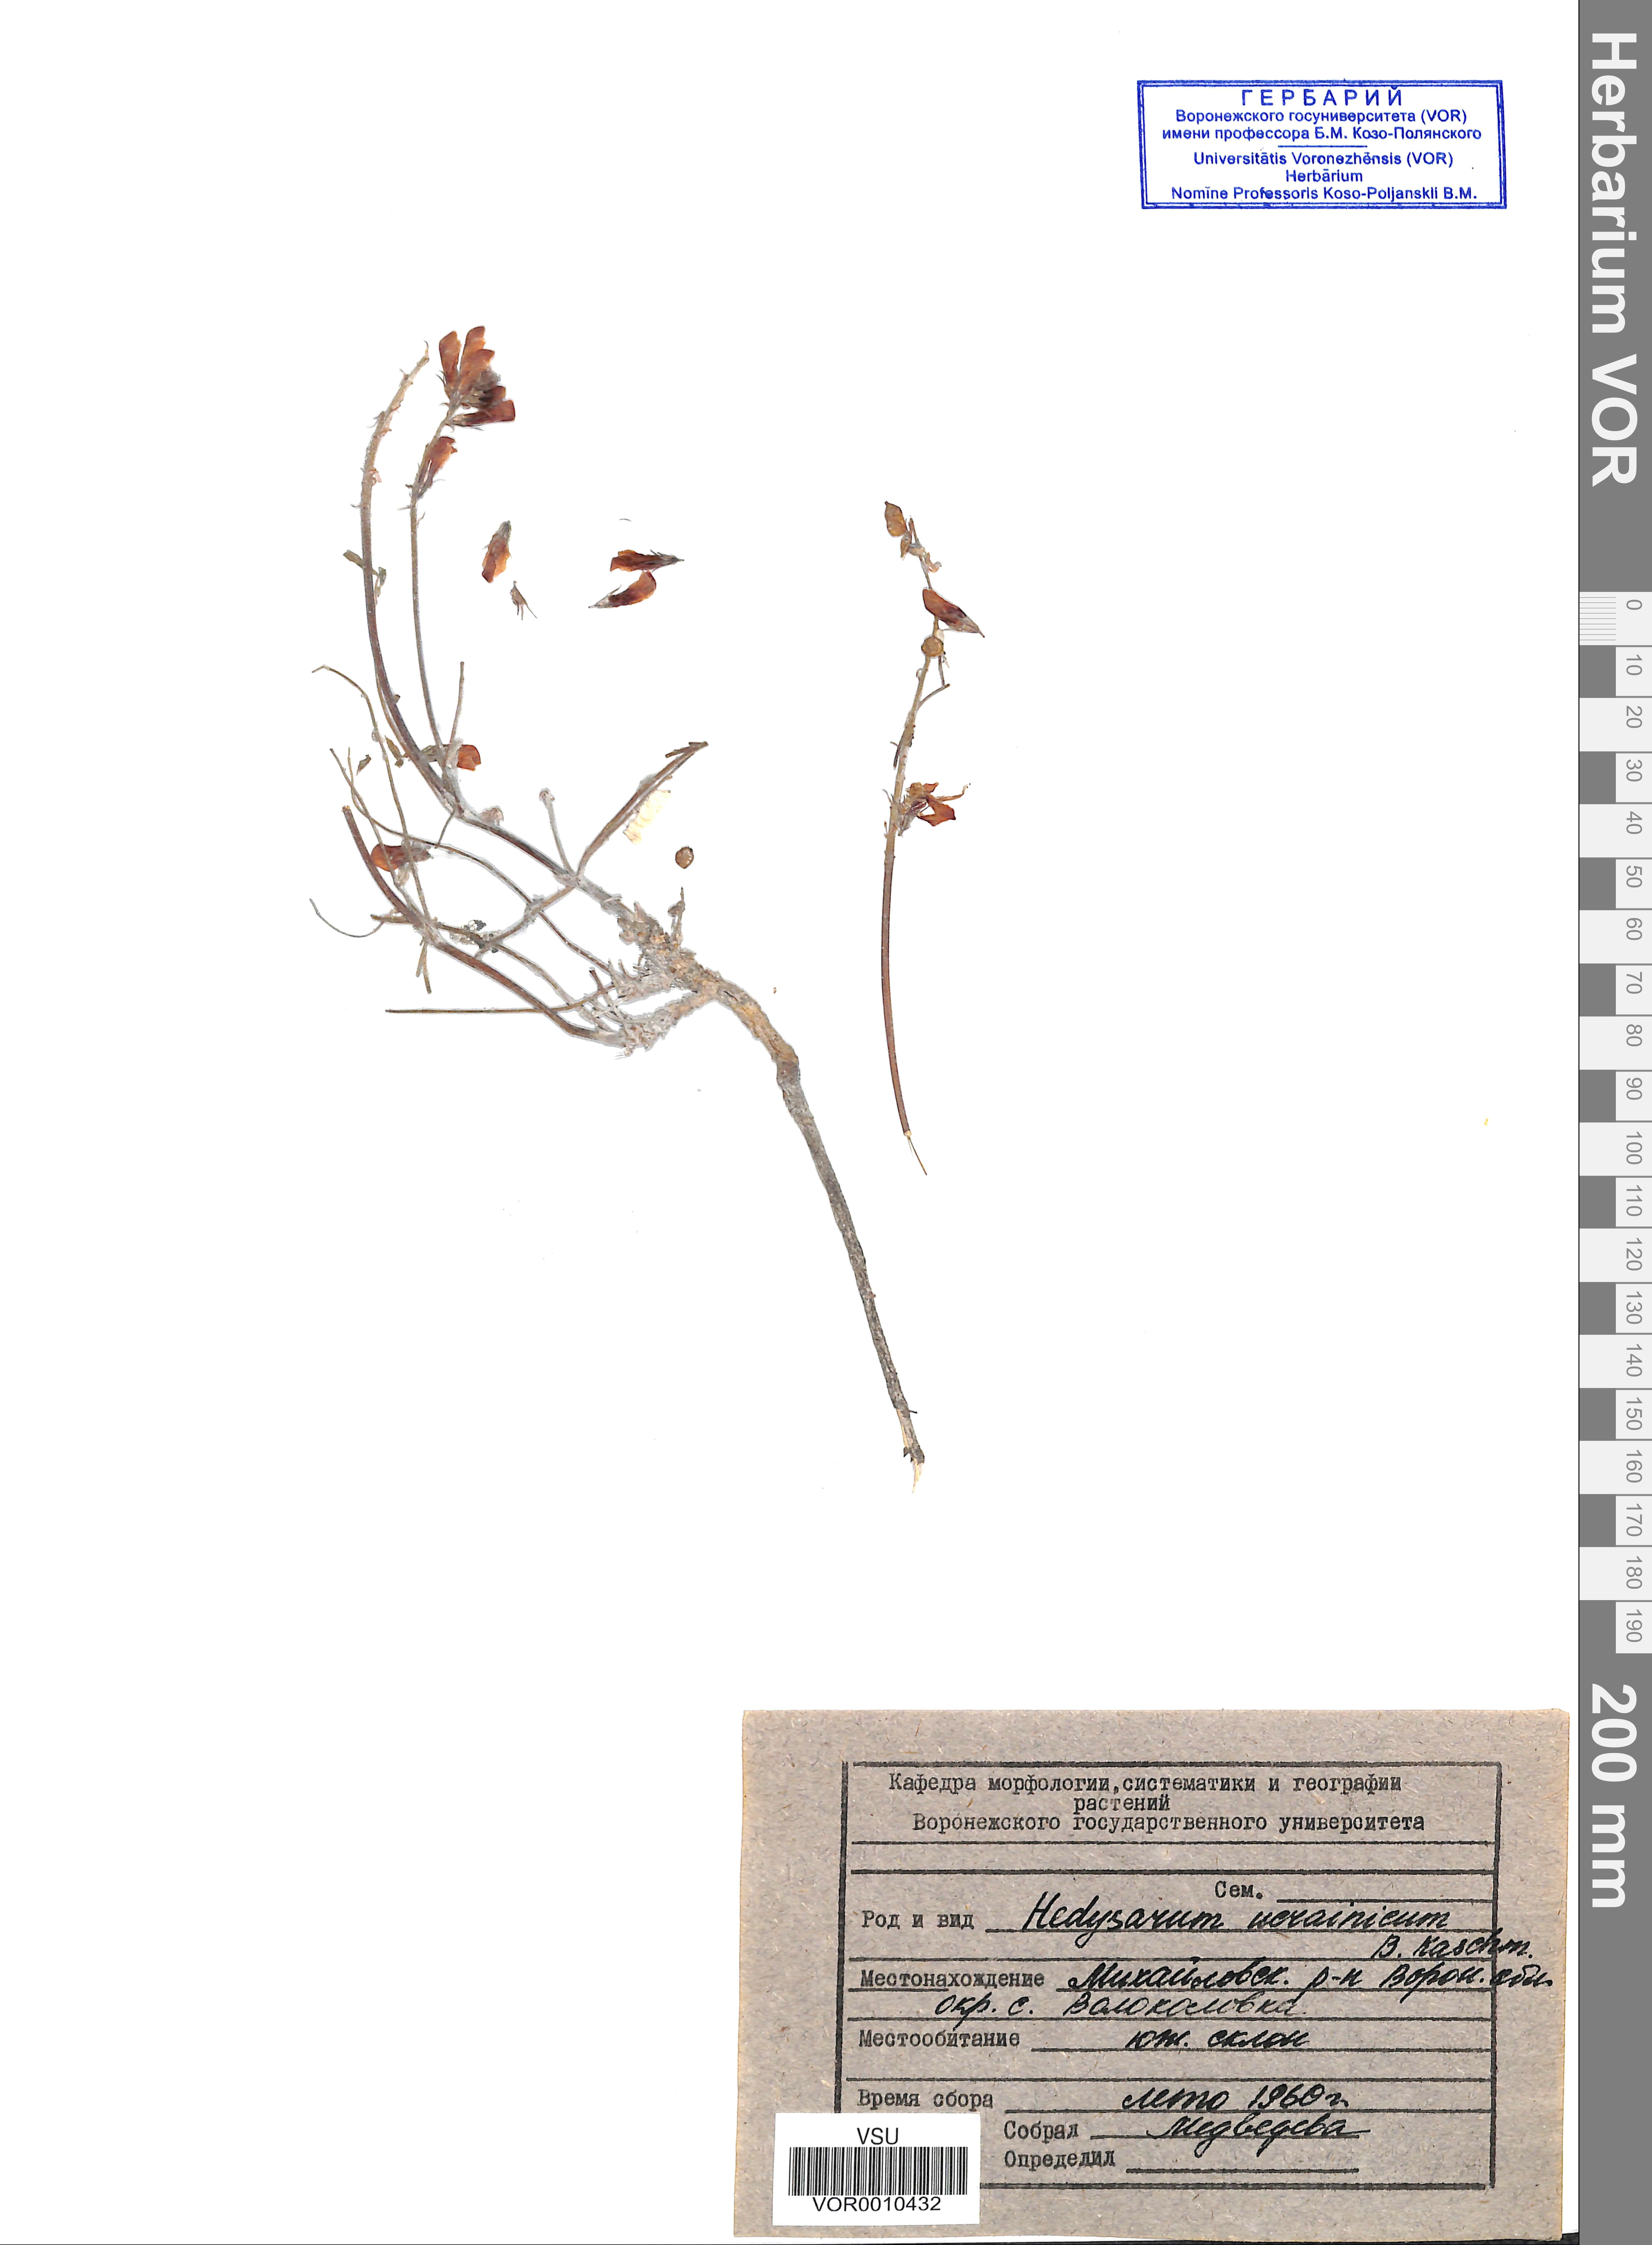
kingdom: Plantae
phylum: Tracheophyta
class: Magnoliopsida
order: Fabales
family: Fabaceae
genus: Hedysarum
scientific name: Hedysarum ucrainicum
